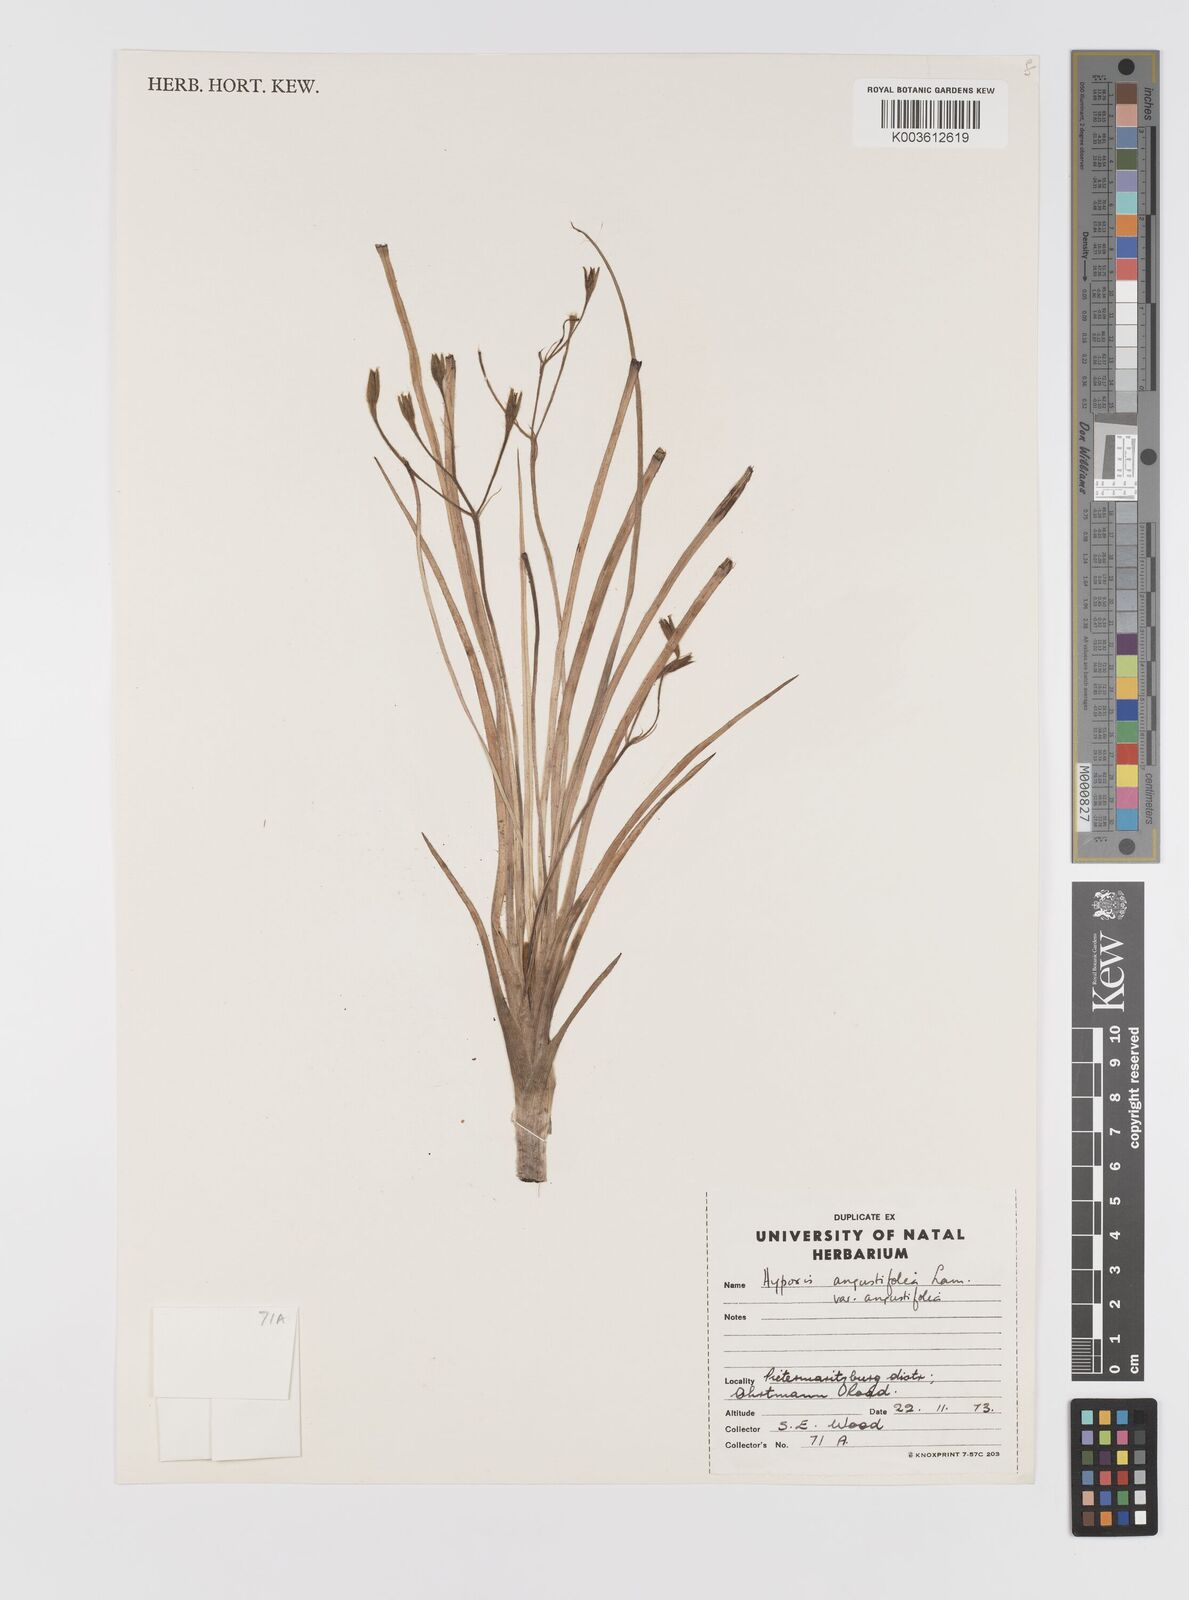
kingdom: Plantae
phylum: Tracheophyta
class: Liliopsida
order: Asparagales
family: Hypoxidaceae
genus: Hypoxis
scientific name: Hypoxis angustifolia
